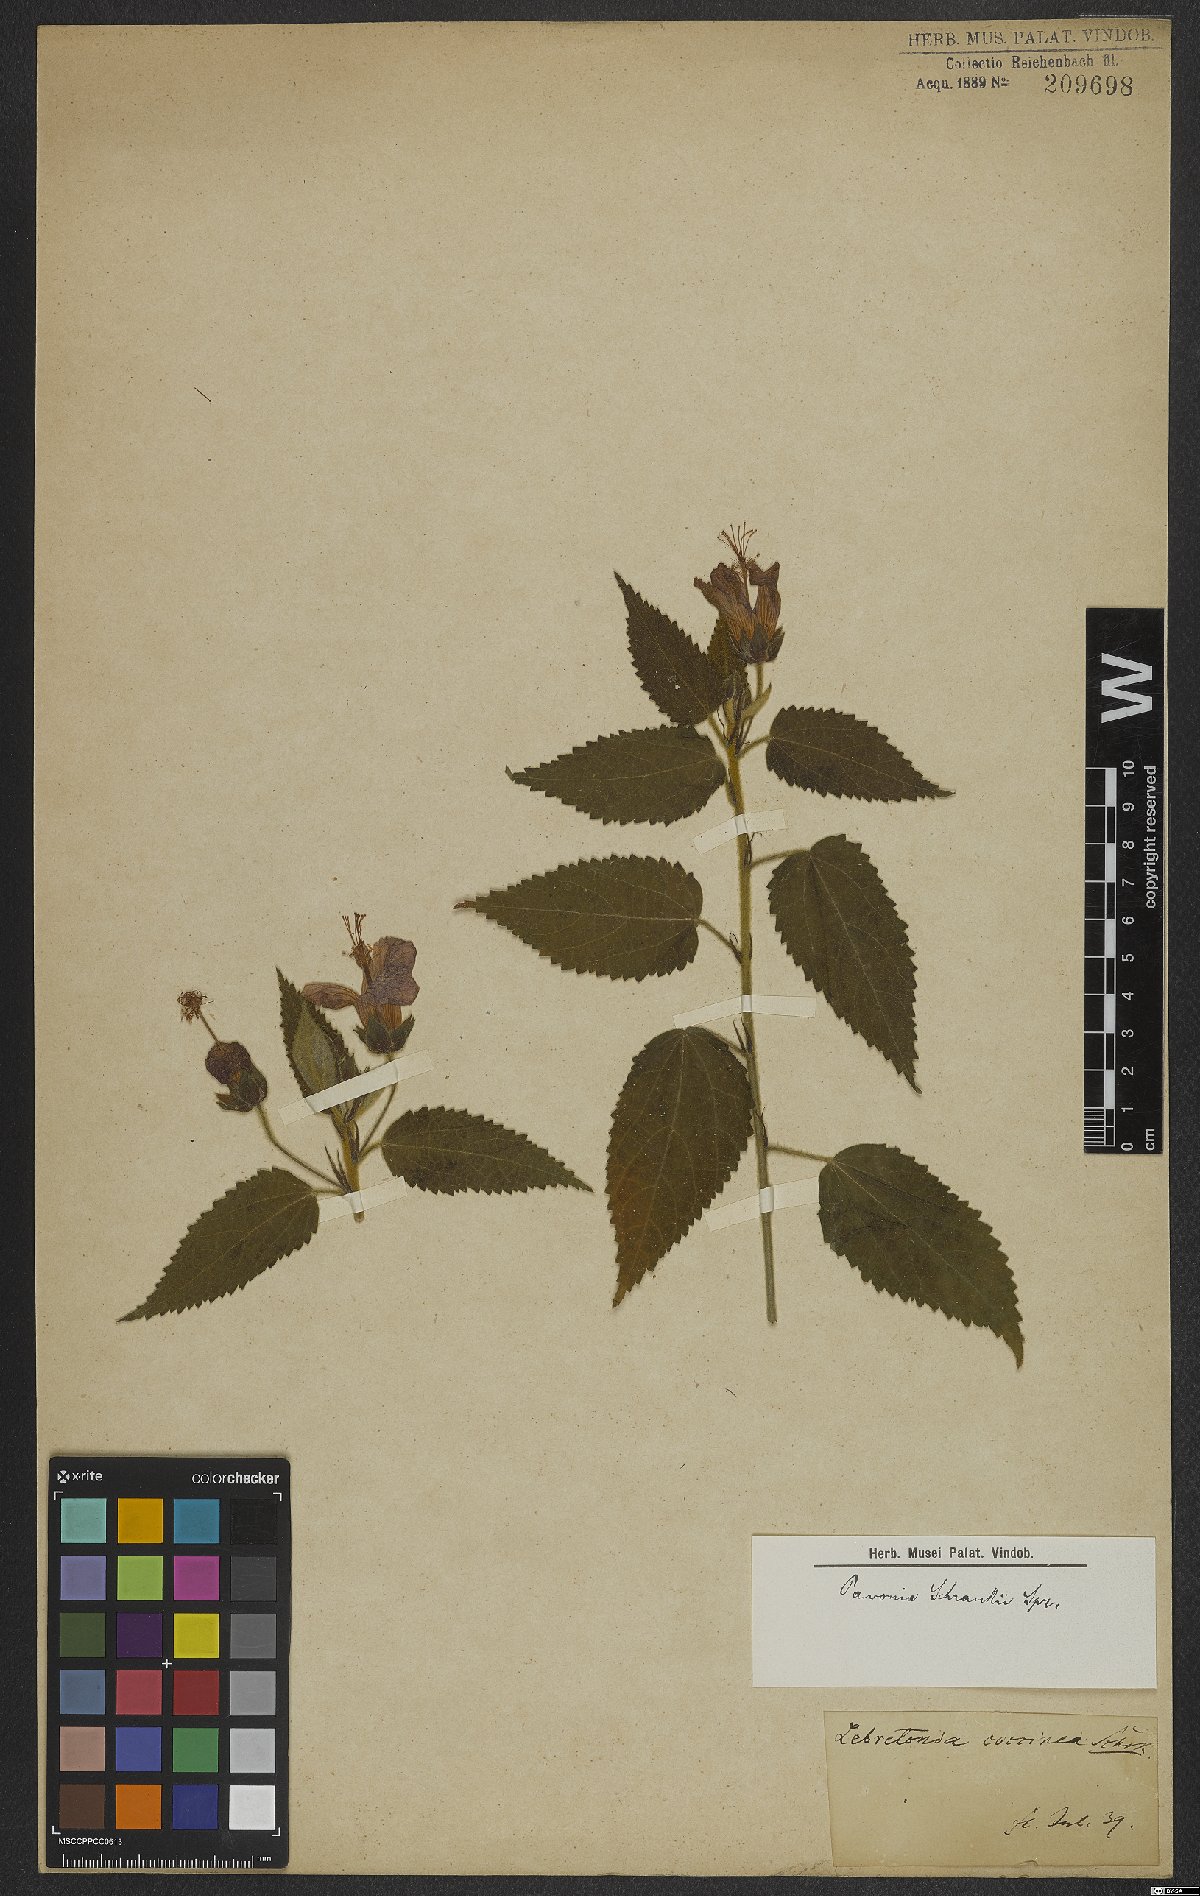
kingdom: Plantae
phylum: Tracheophyta
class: Magnoliopsida
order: Malvales
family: Malvaceae
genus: Pavonia
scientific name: Pavonia schrankii
